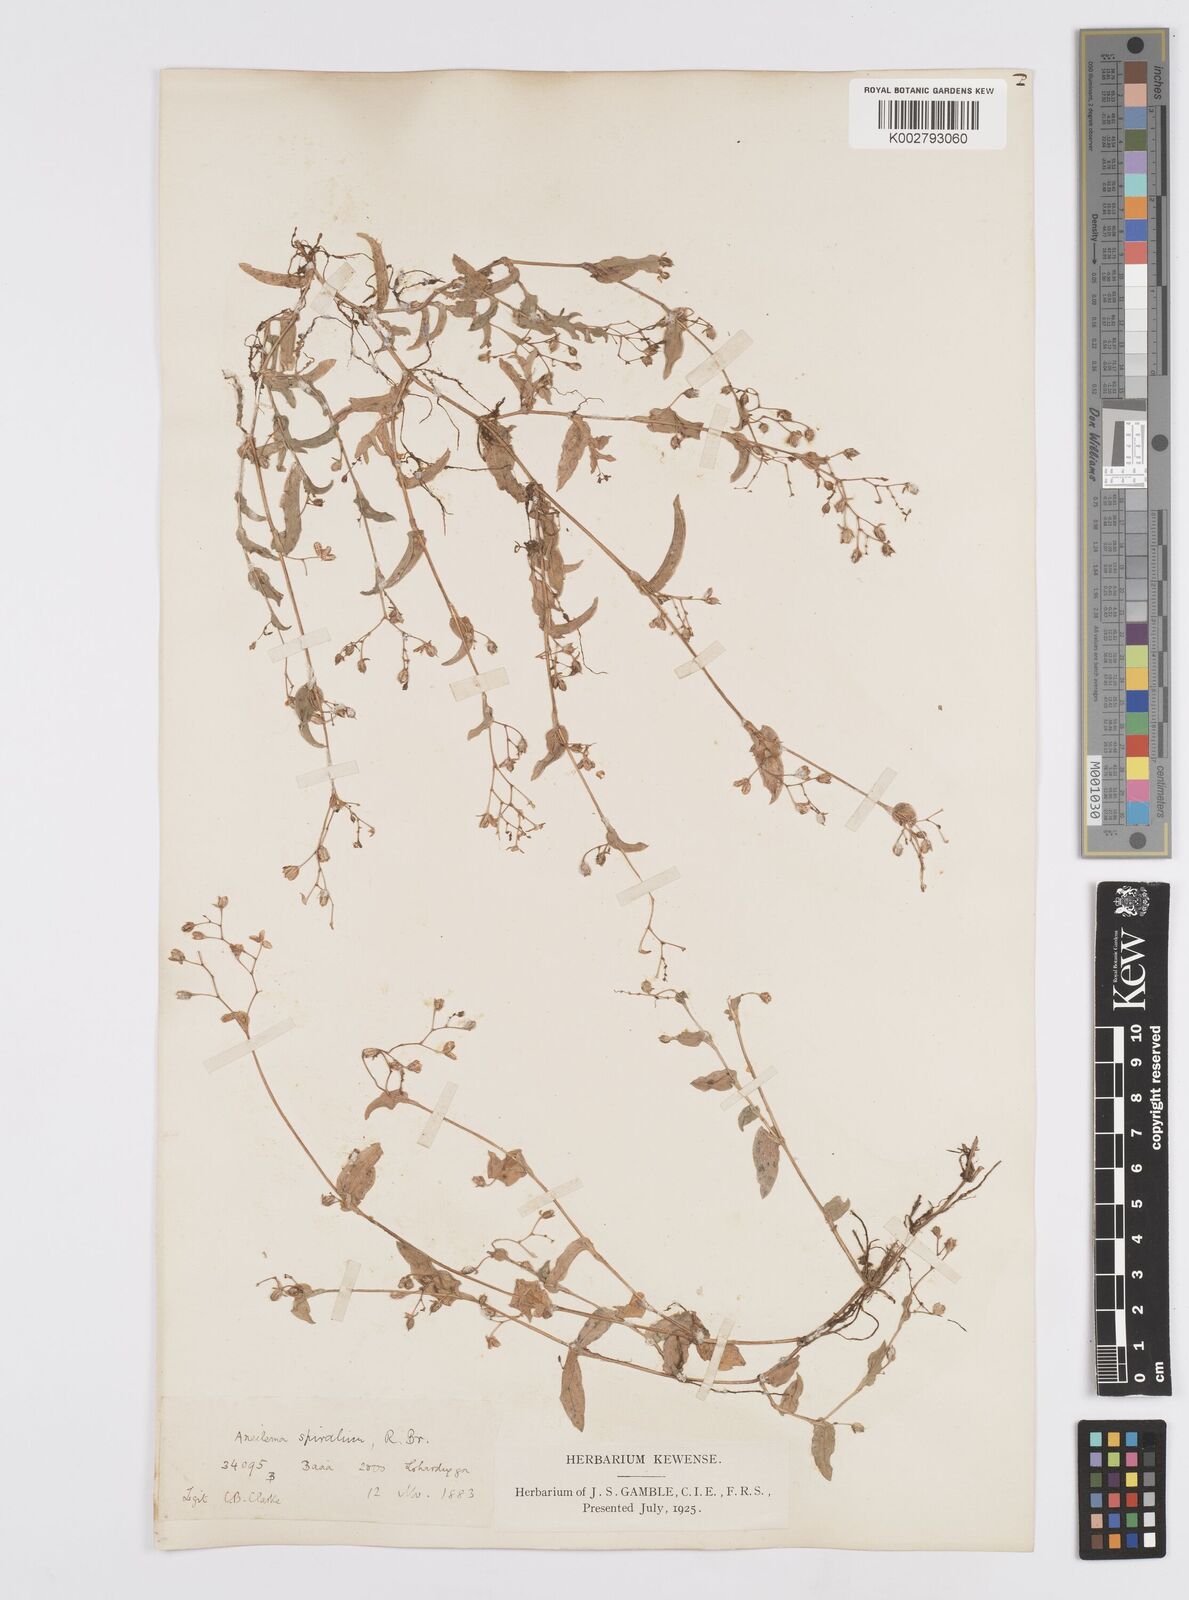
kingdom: Plantae
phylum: Tracheophyta
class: Liliopsida
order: Commelinales
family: Commelinaceae
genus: Murdannia
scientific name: Murdannia spirata
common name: Asiatic dewflower
